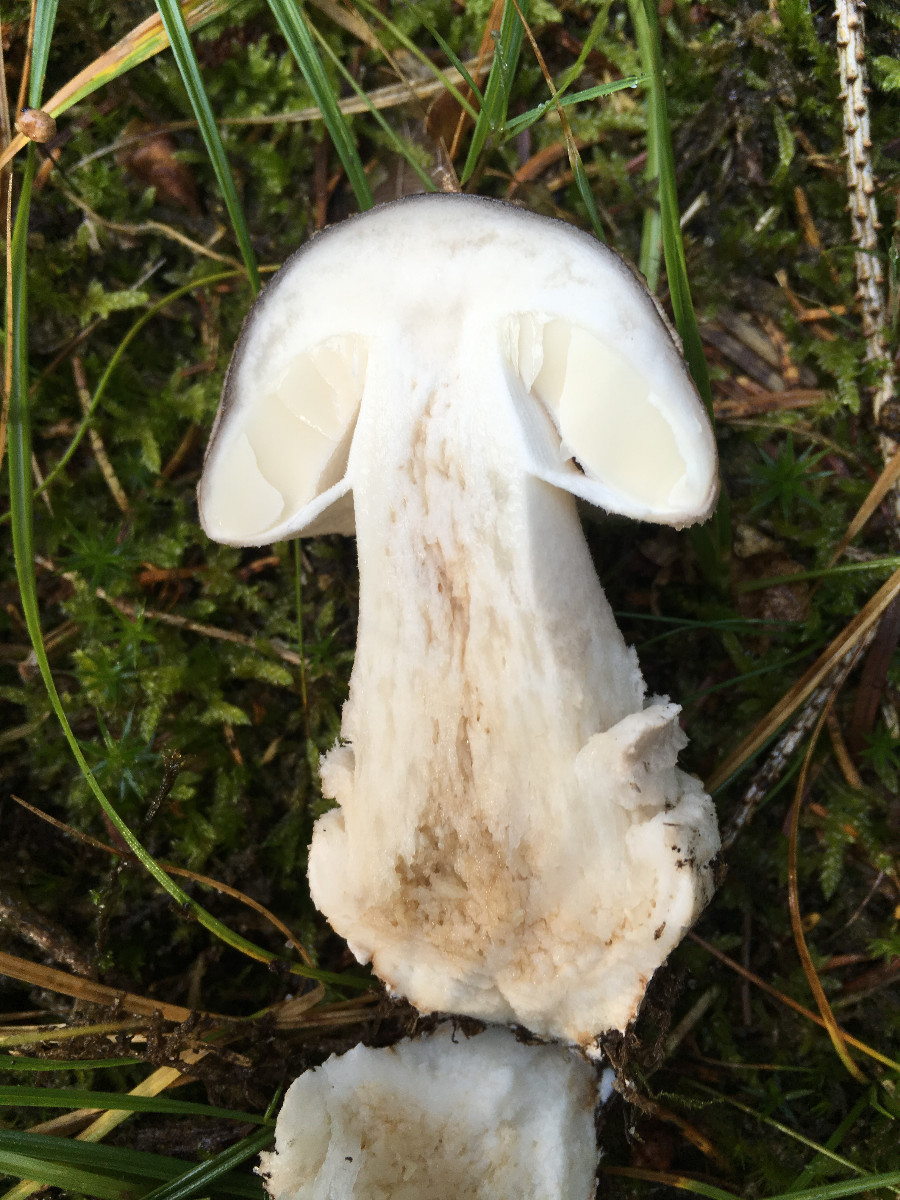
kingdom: Fungi
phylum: Basidiomycota
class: Agaricomycetes
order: Agaricales
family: Amanitaceae
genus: Amanita
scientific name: Amanita
